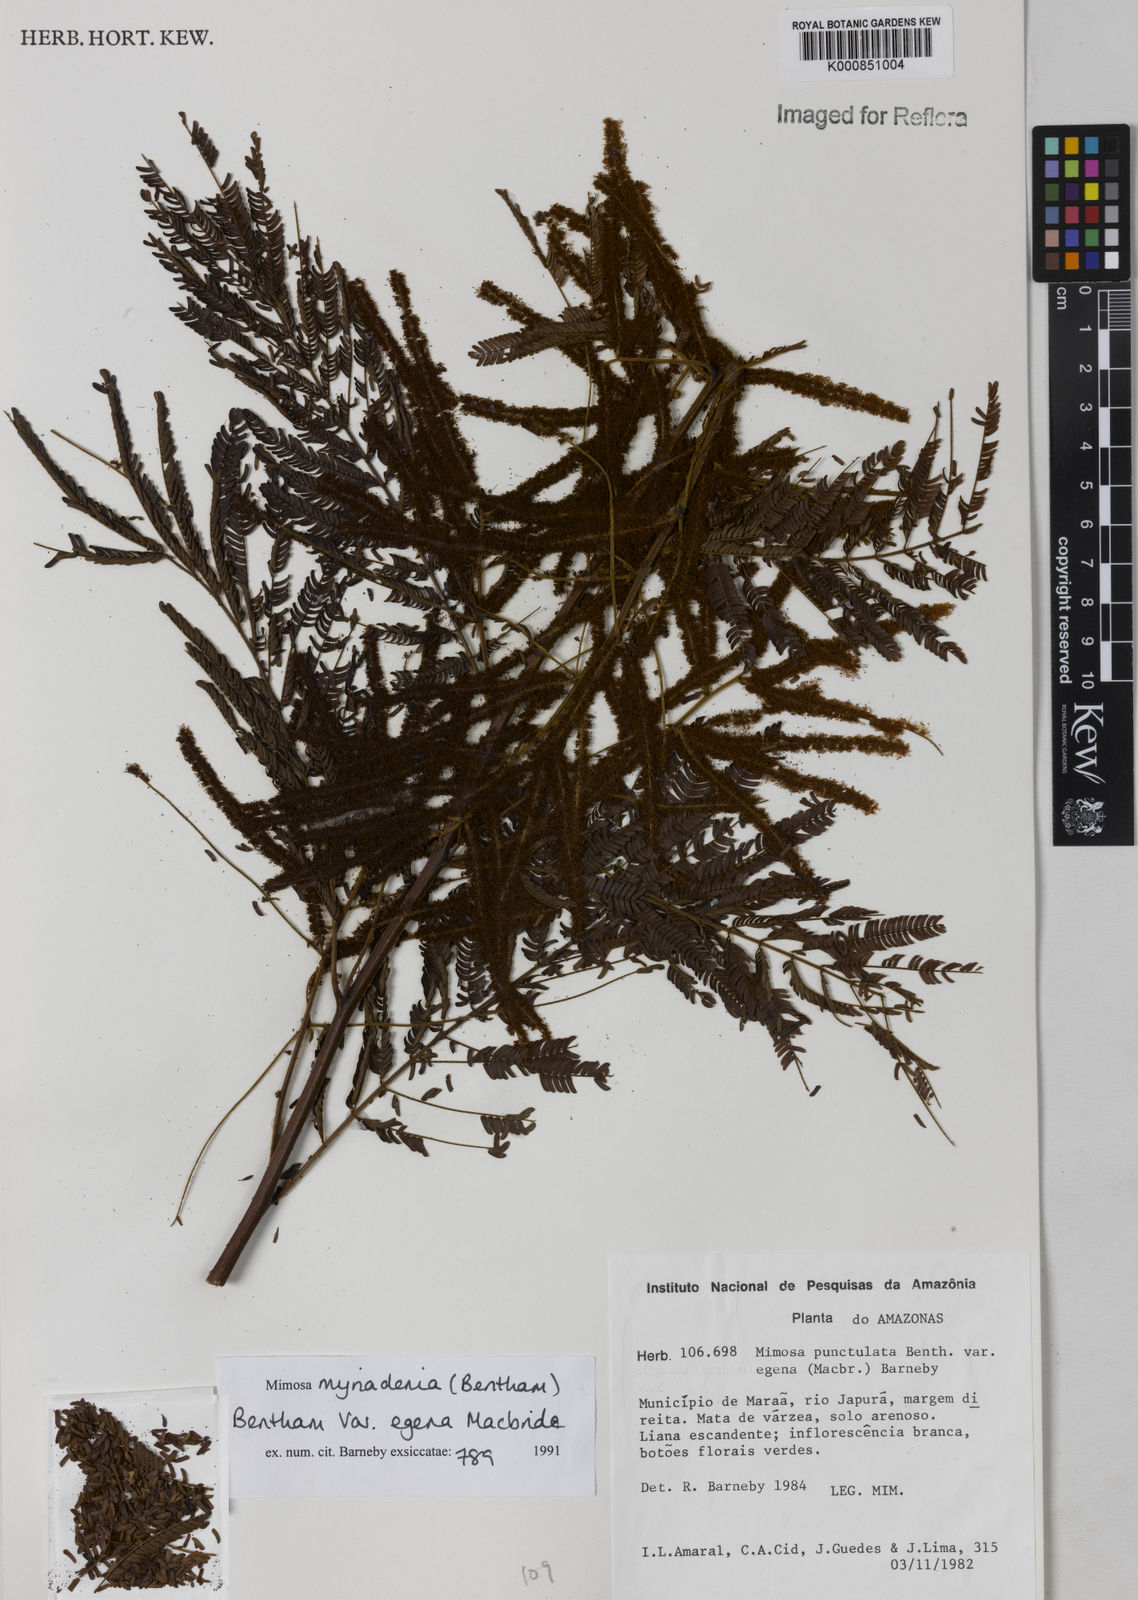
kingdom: Plantae
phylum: Tracheophyta
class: Magnoliopsida
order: Fabales
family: Fabaceae
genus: Mimosa
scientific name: Mimosa myriadenia
